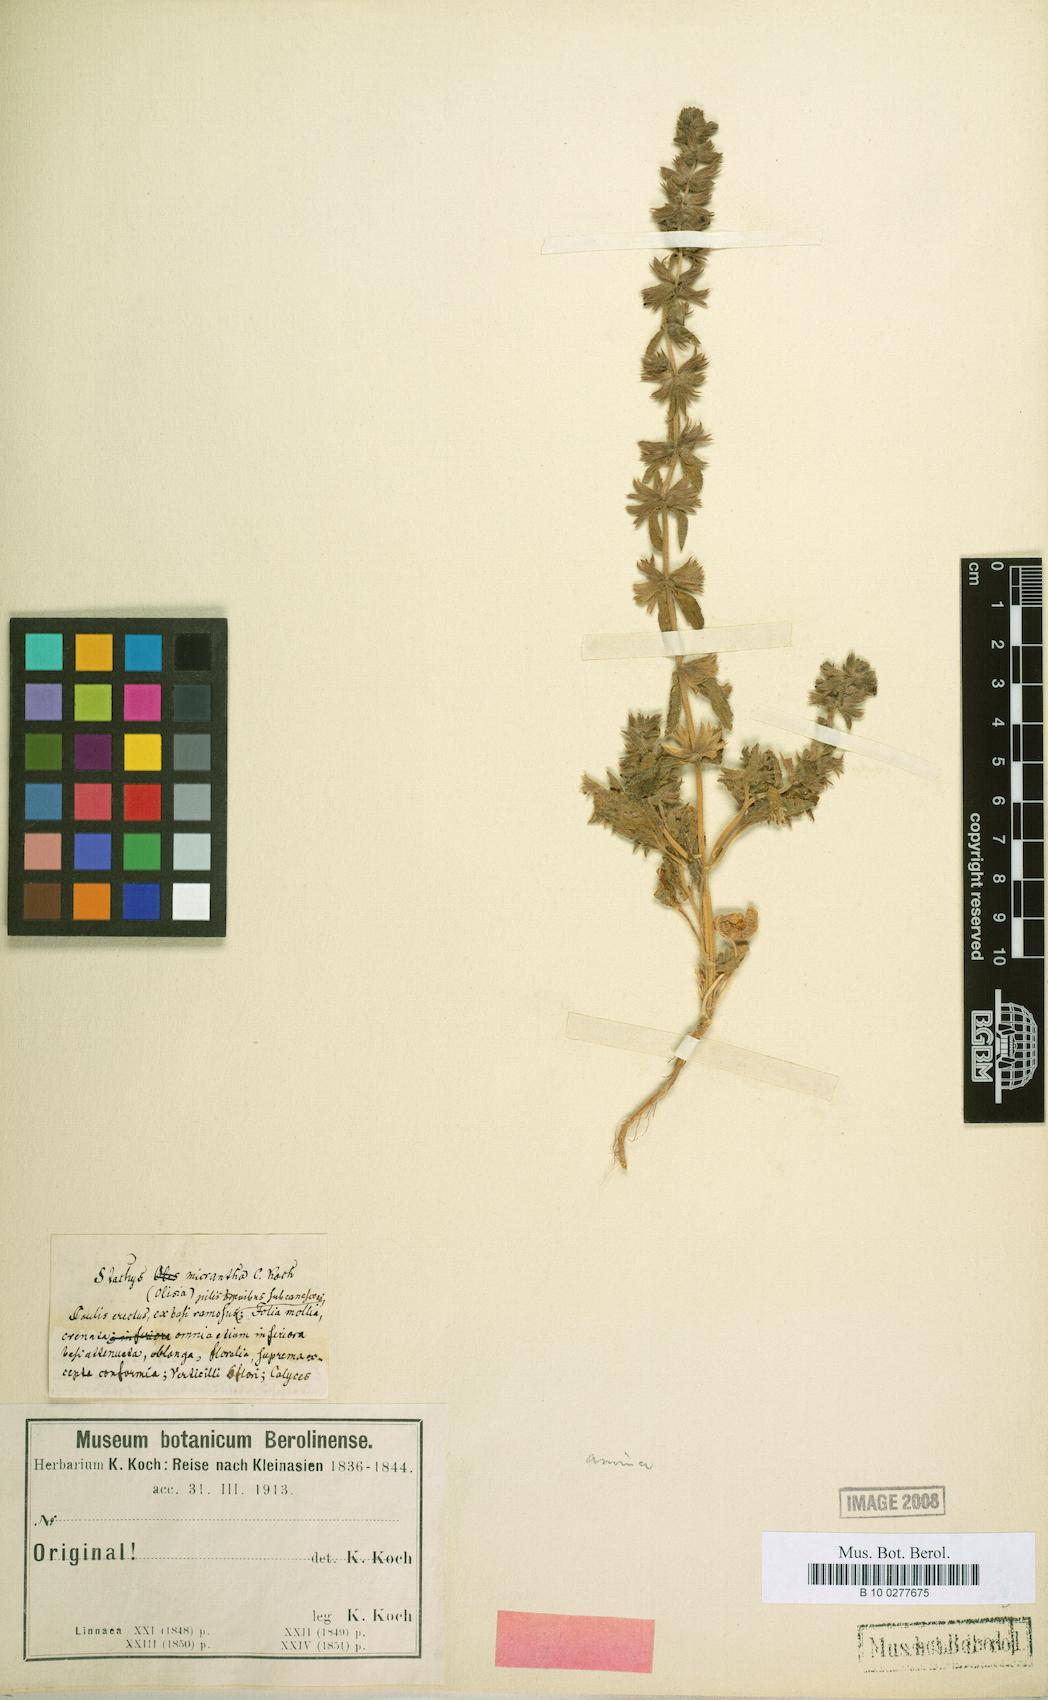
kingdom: Plantae
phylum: Tracheophyta
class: Magnoliopsida
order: Lamiales
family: Lamiaceae
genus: Stachys
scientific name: Stachys annua
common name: Annual yellow-woundwort
